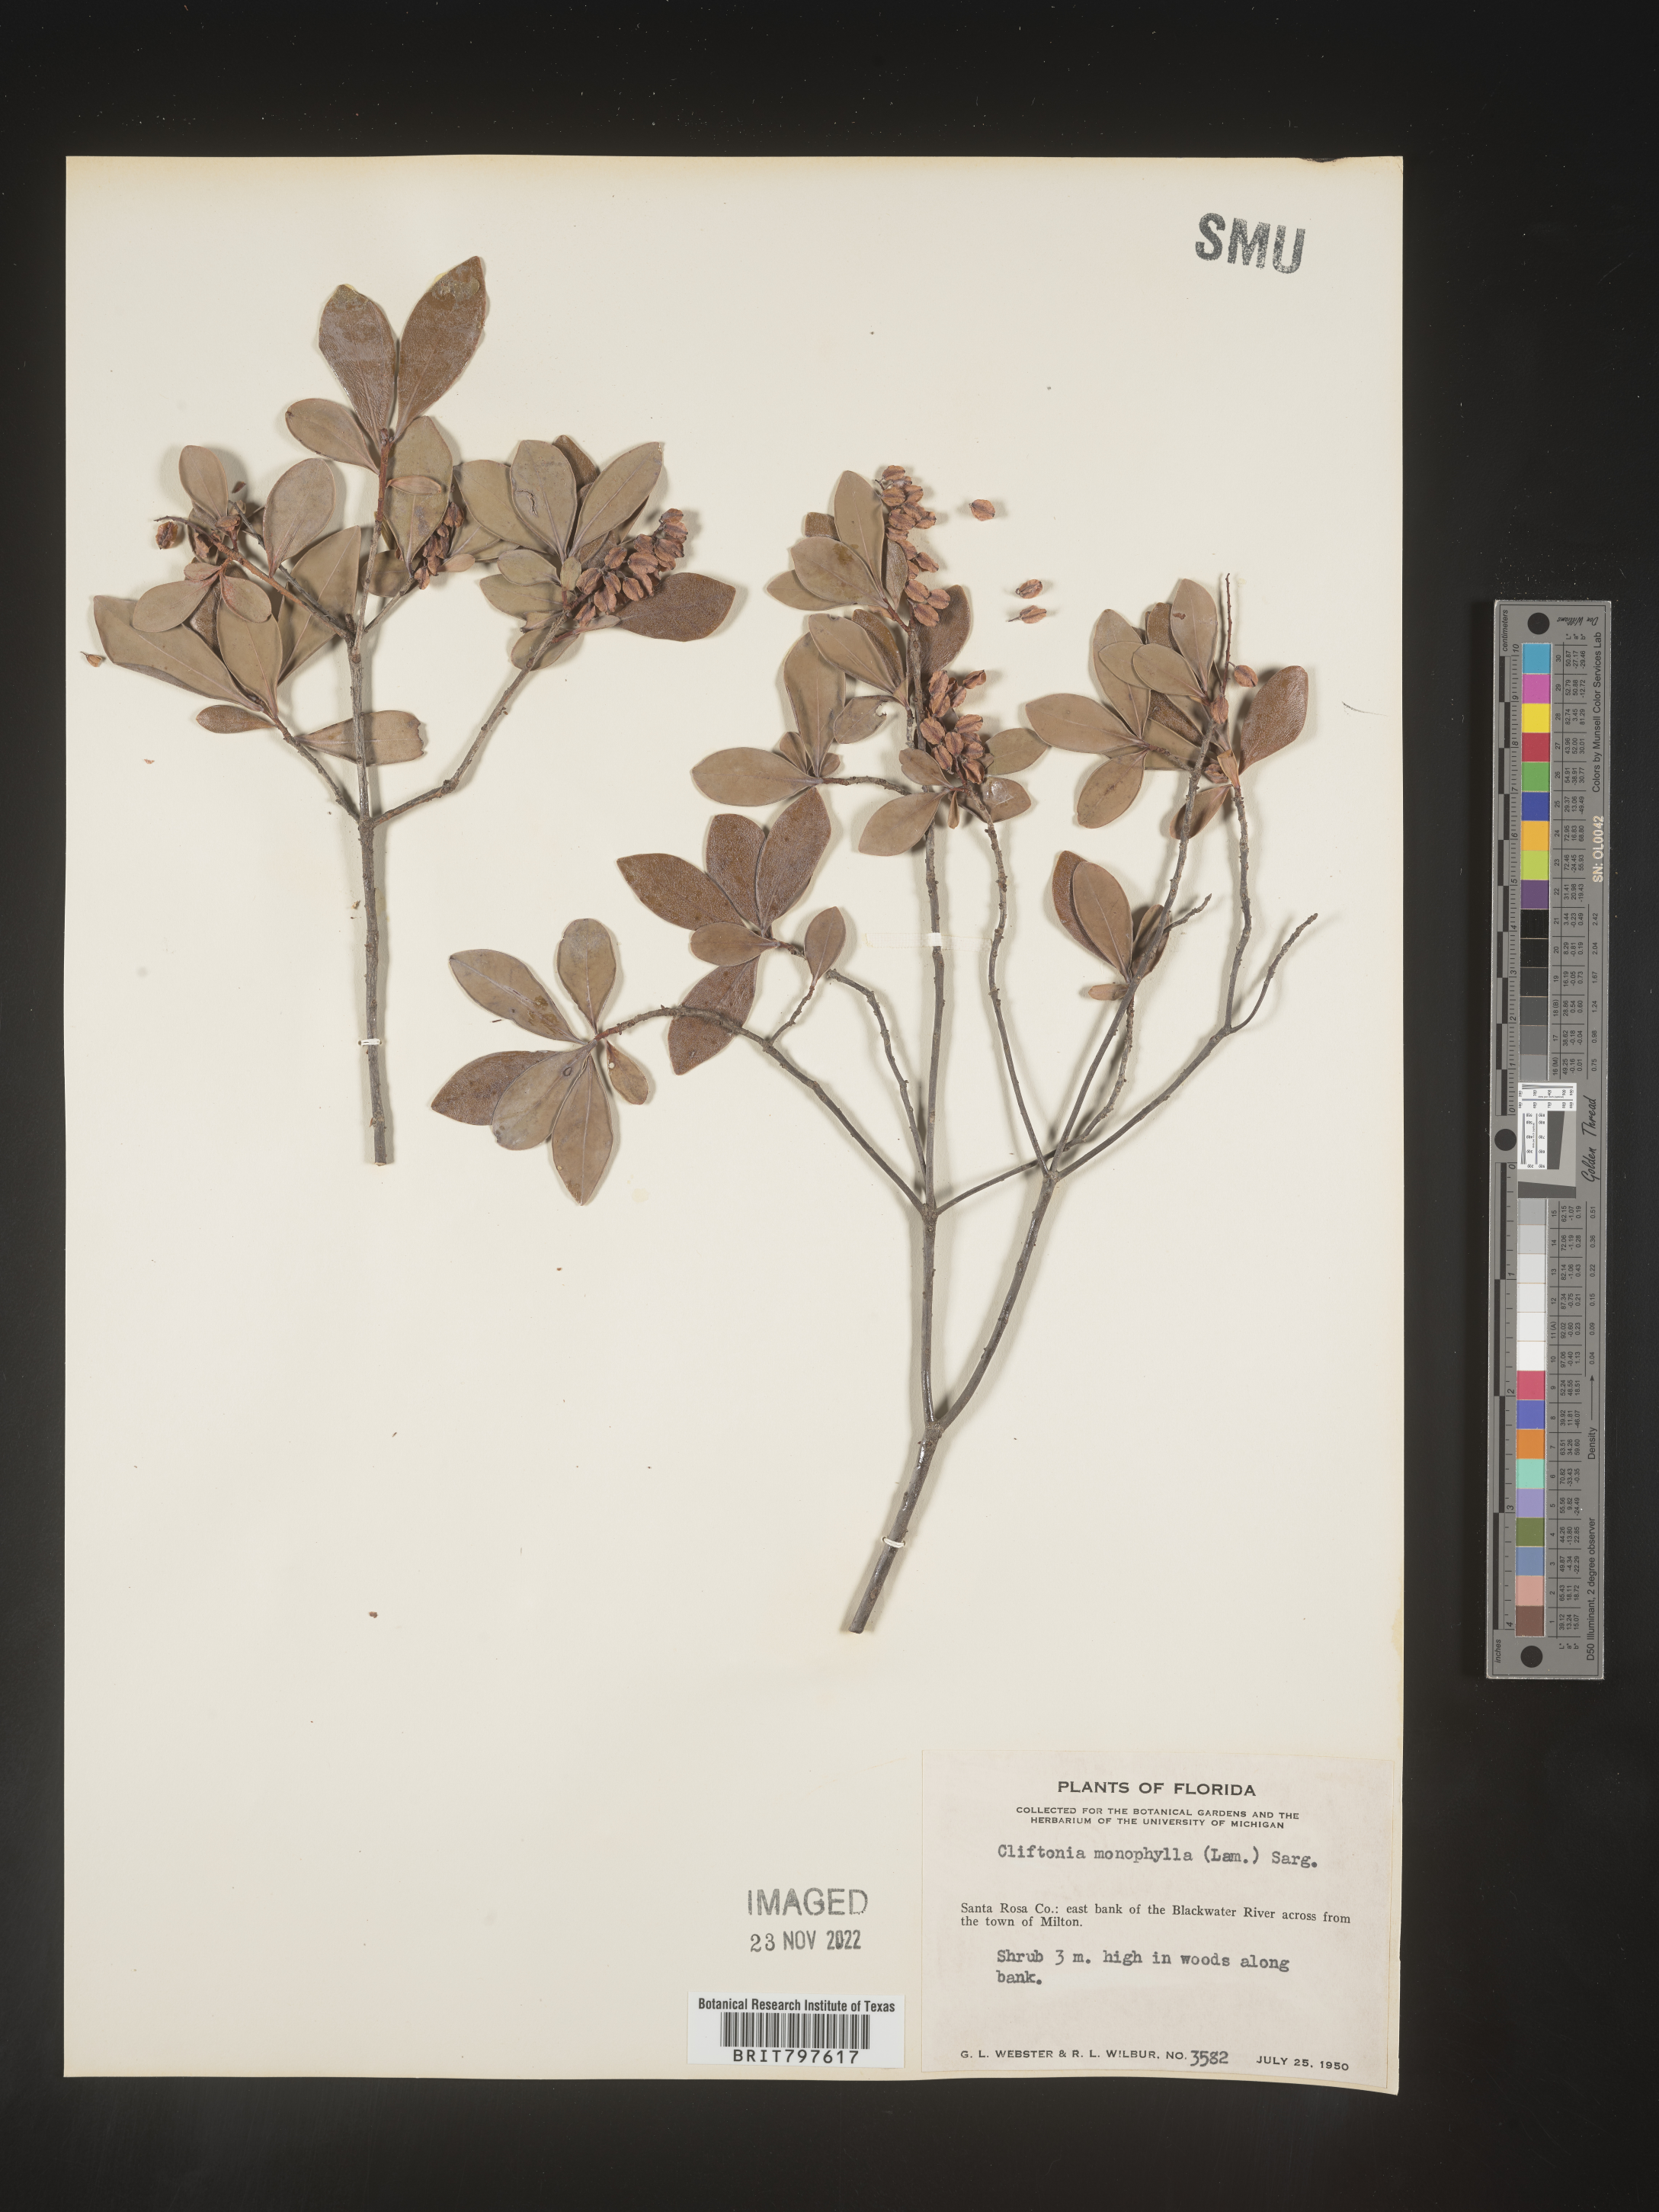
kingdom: Plantae
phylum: Tracheophyta
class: Magnoliopsida
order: Ericales
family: Cyrillaceae
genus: Cliftonia
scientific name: Cliftonia monophylla
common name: Titi
